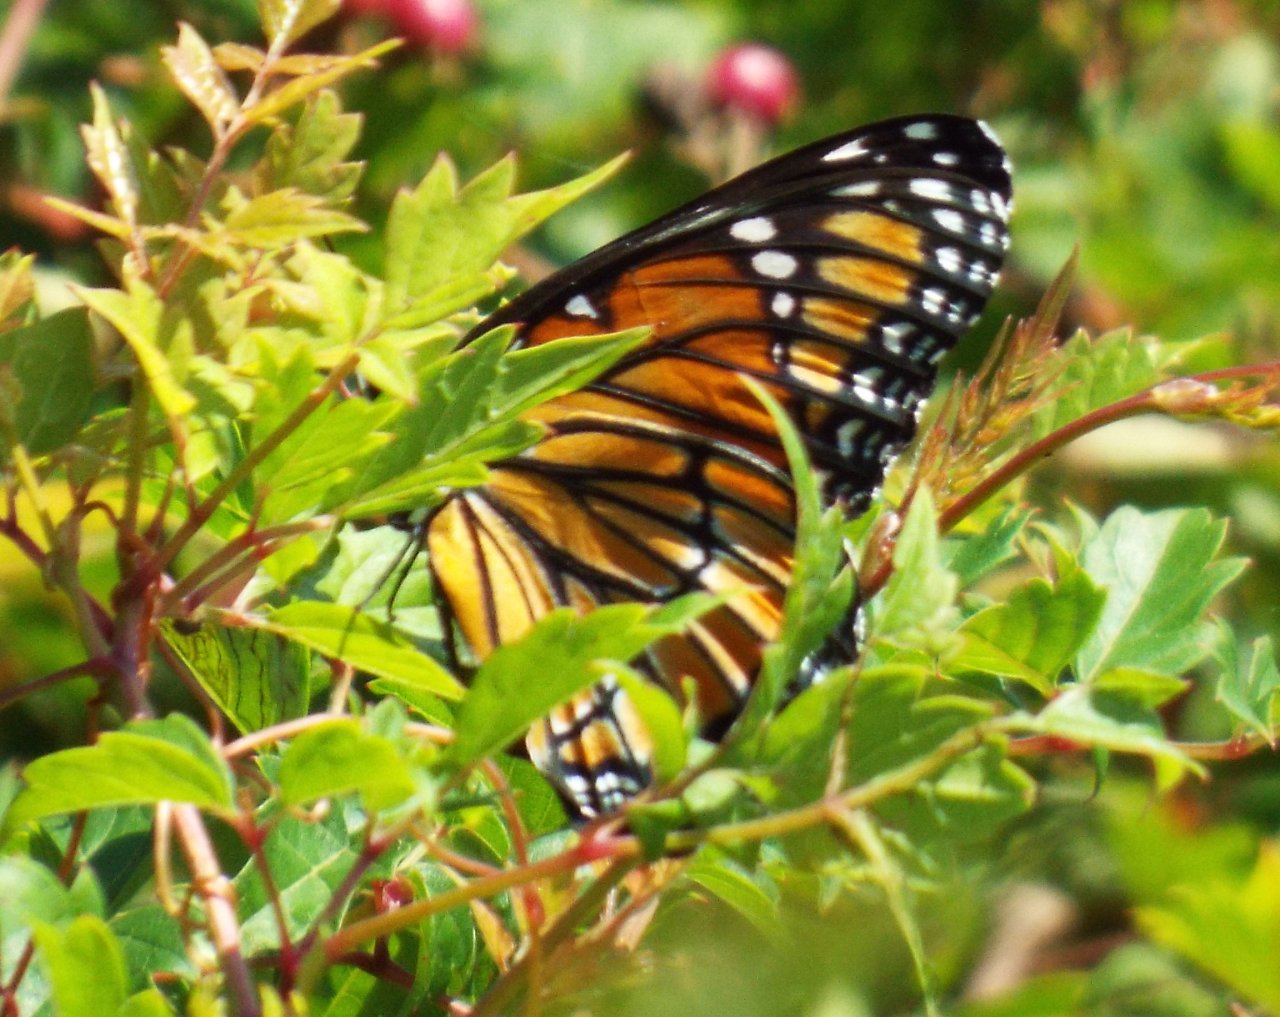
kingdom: Animalia
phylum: Arthropoda
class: Insecta
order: Lepidoptera
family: Nymphalidae
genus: Limenitis
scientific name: Limenitis archippus
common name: Viceroy
